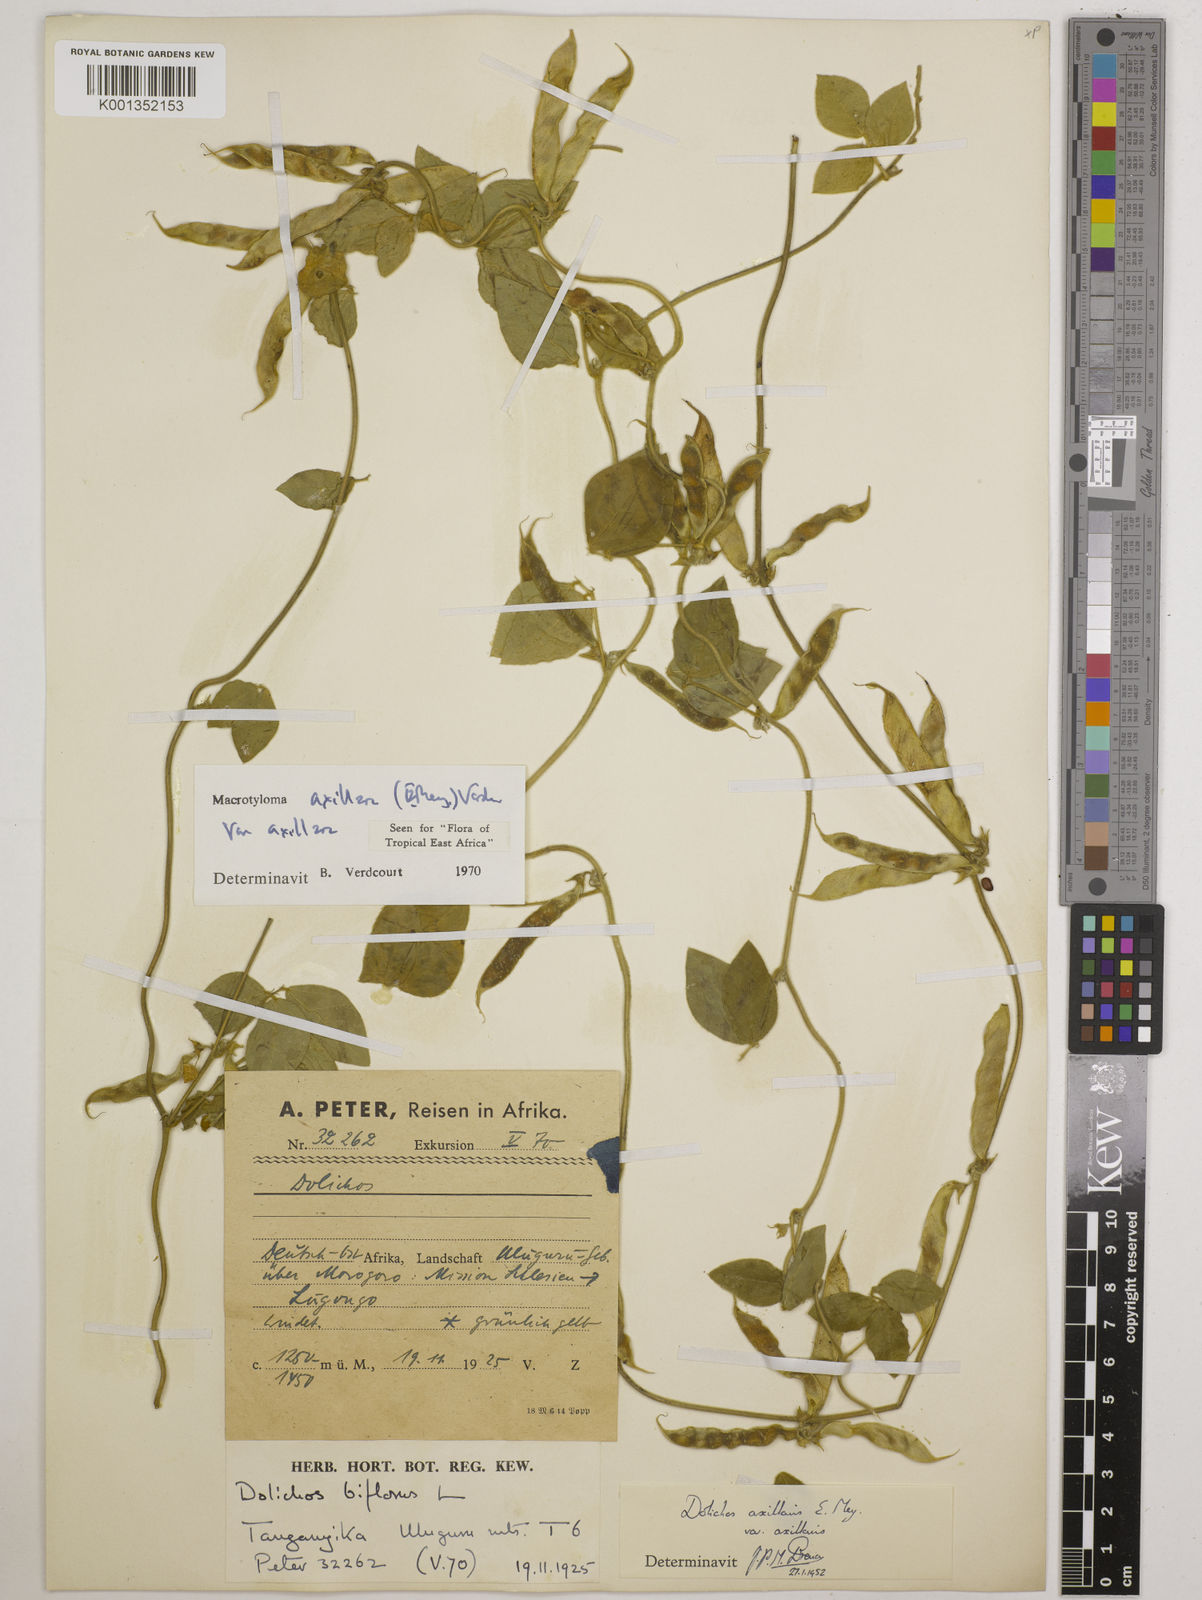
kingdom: Plantae
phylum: Tracheophyta
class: Magnoliopsida
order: Fabales
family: Fabaceae
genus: Macrotyloma
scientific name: Macrotyloma axillare
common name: Perennial horsegram
